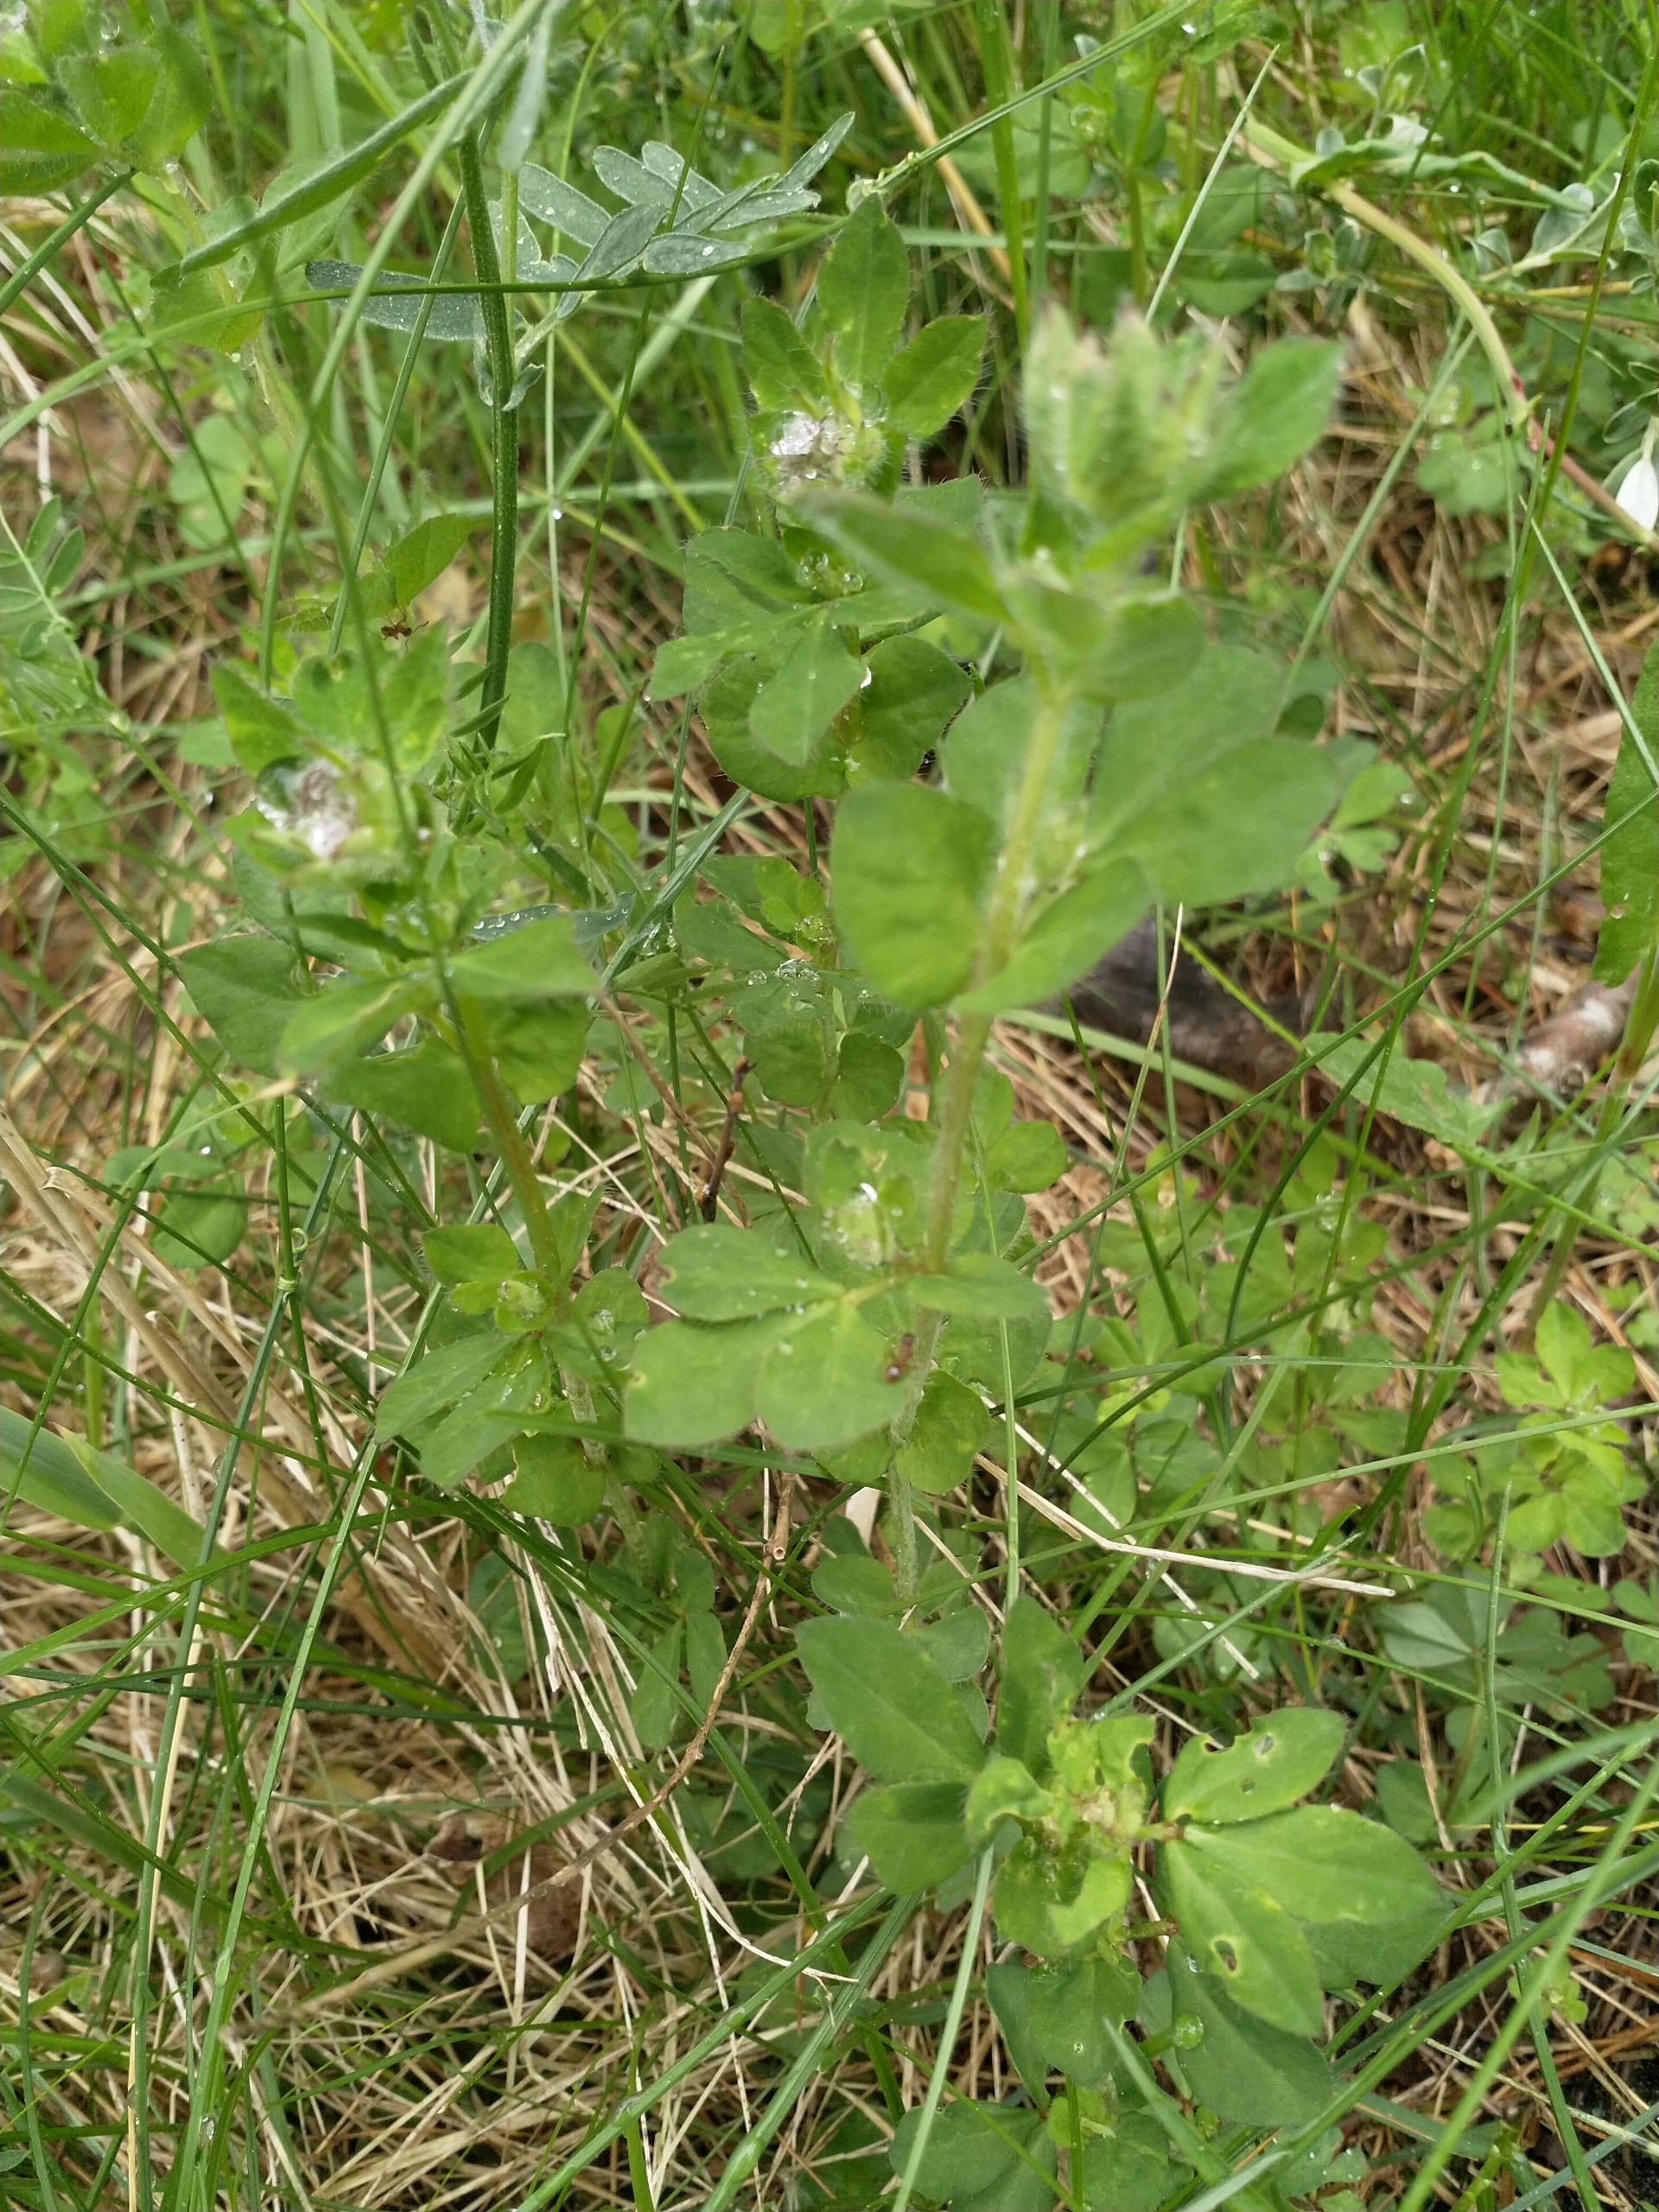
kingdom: Plantae
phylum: Tracheophyta
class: Magnoliopsida
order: Fabales
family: Fabaceae
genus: Lotus
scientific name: Lotus pedunculatus
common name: Sump-kællingetand
